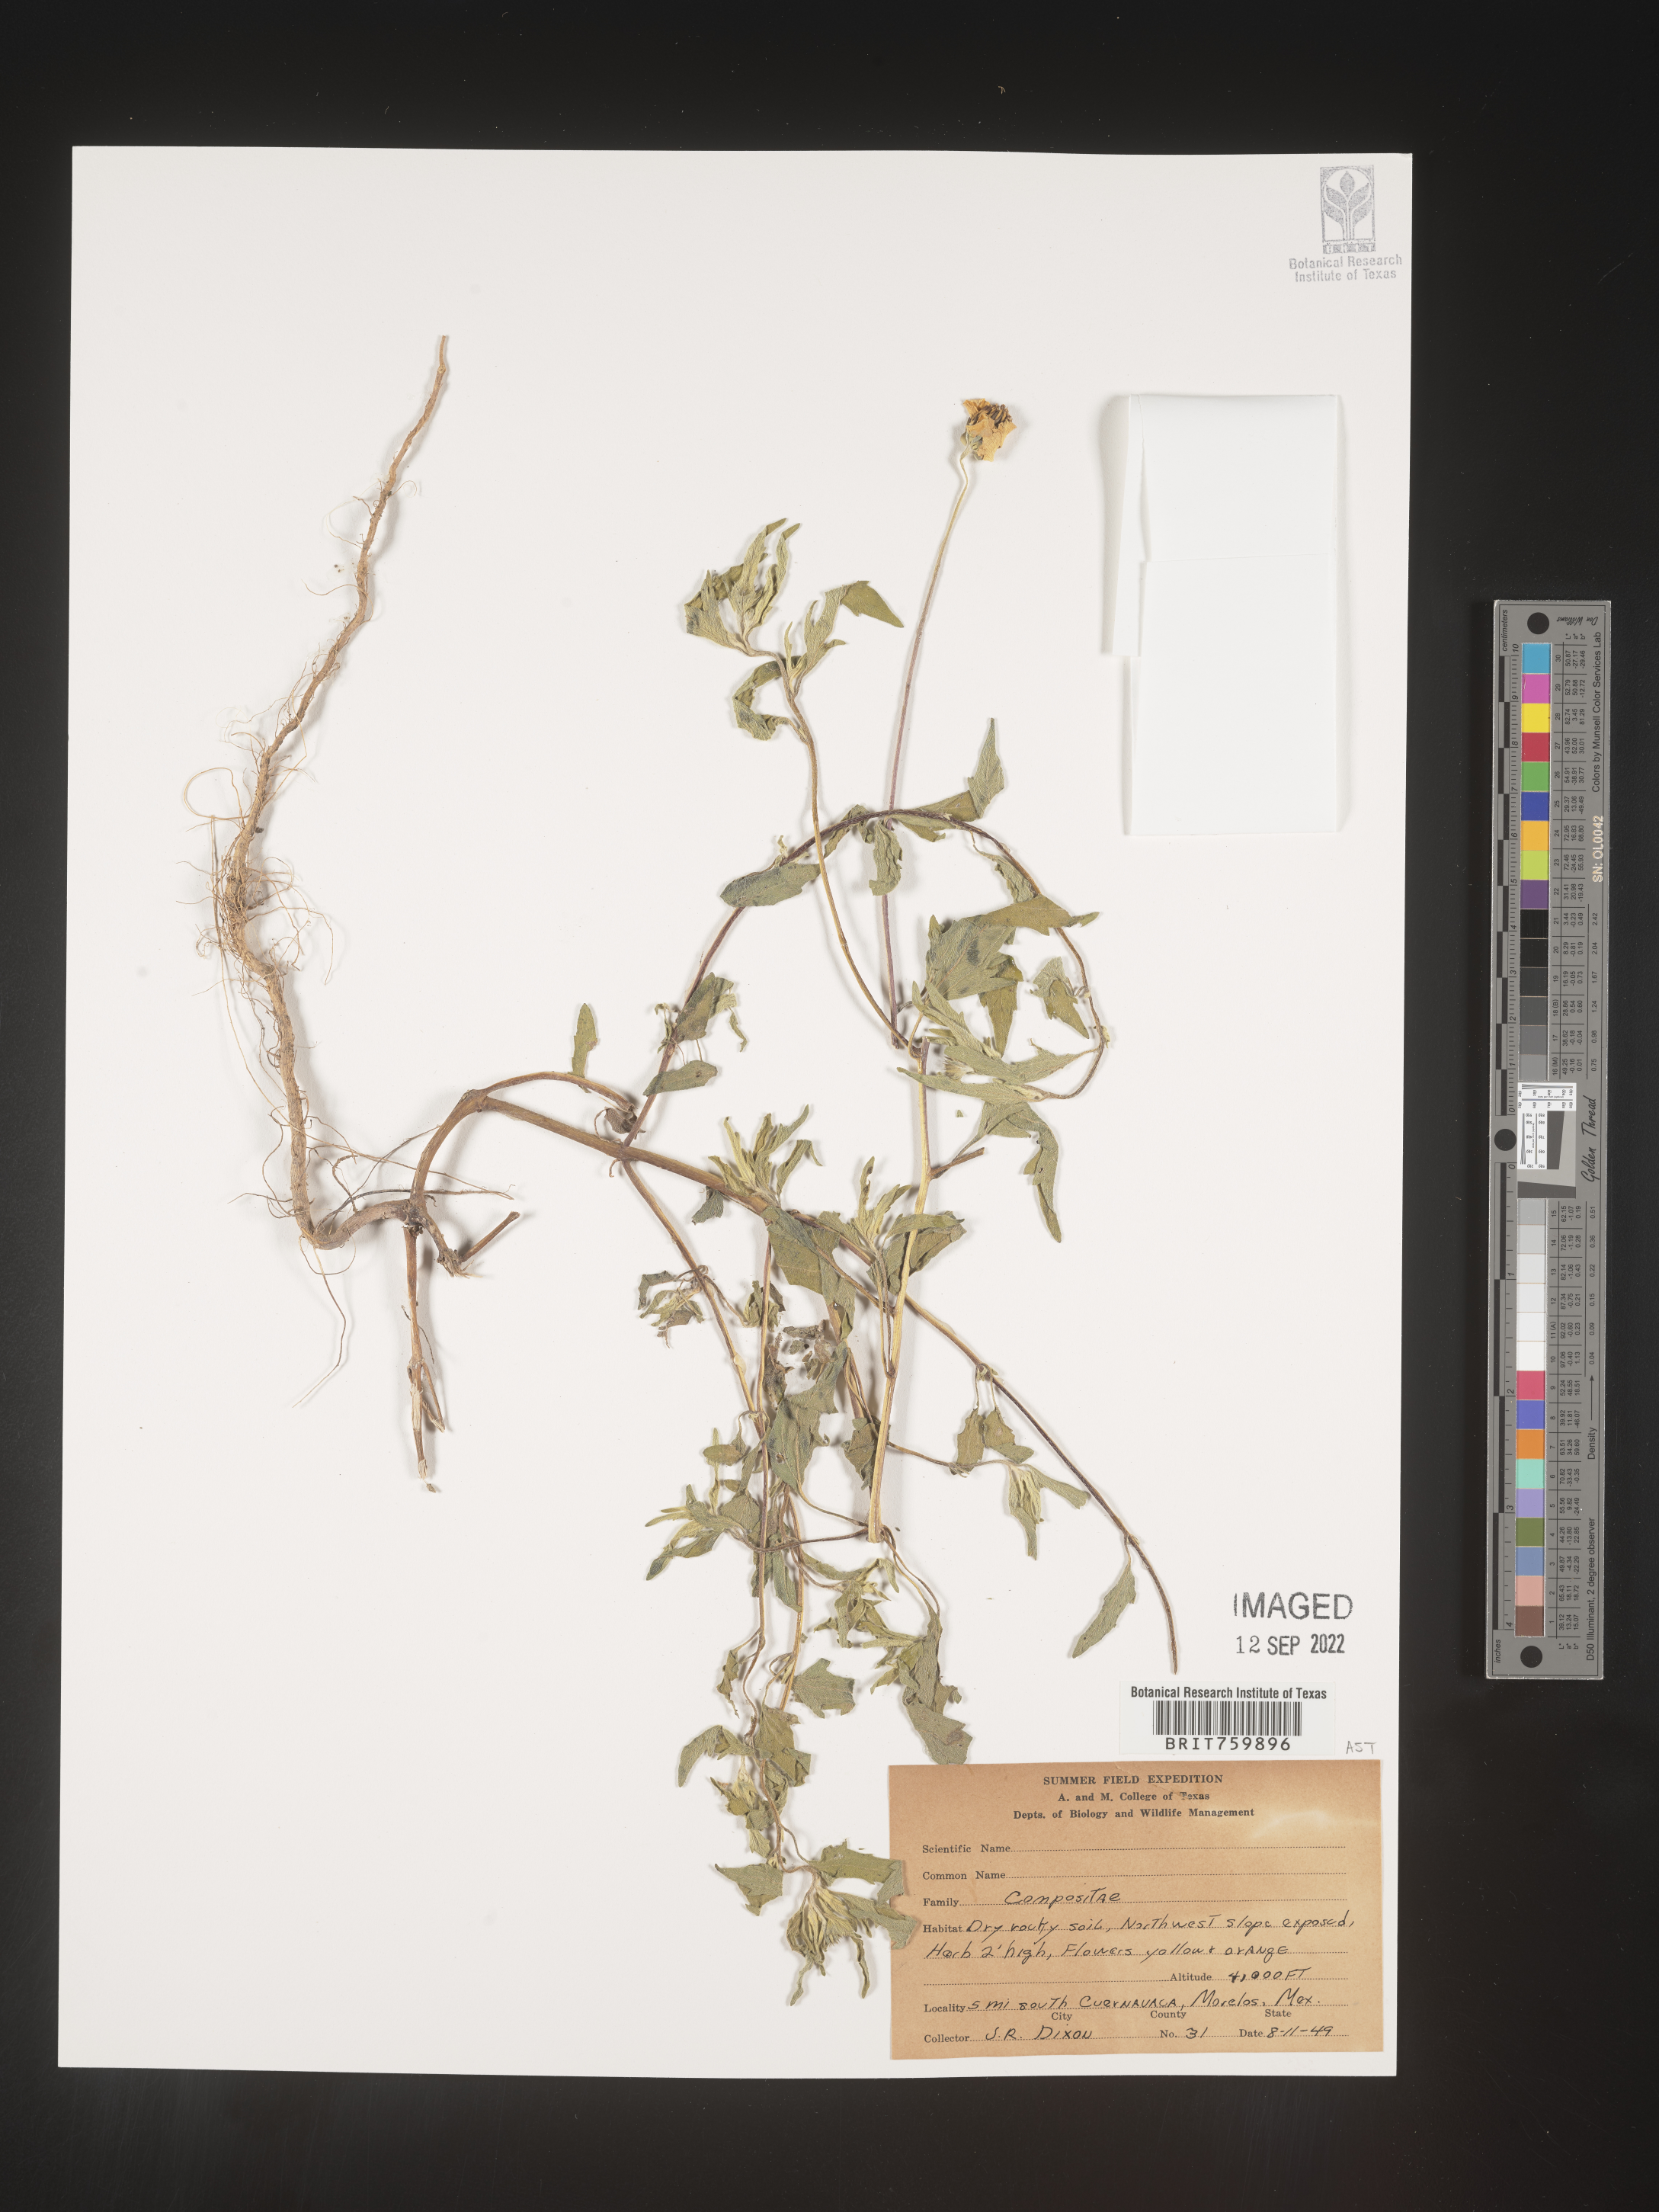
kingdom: Plantae
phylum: Tracheophyta
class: Magnoliopsida
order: Asterales
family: Asteraceae
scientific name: Asteraceae
